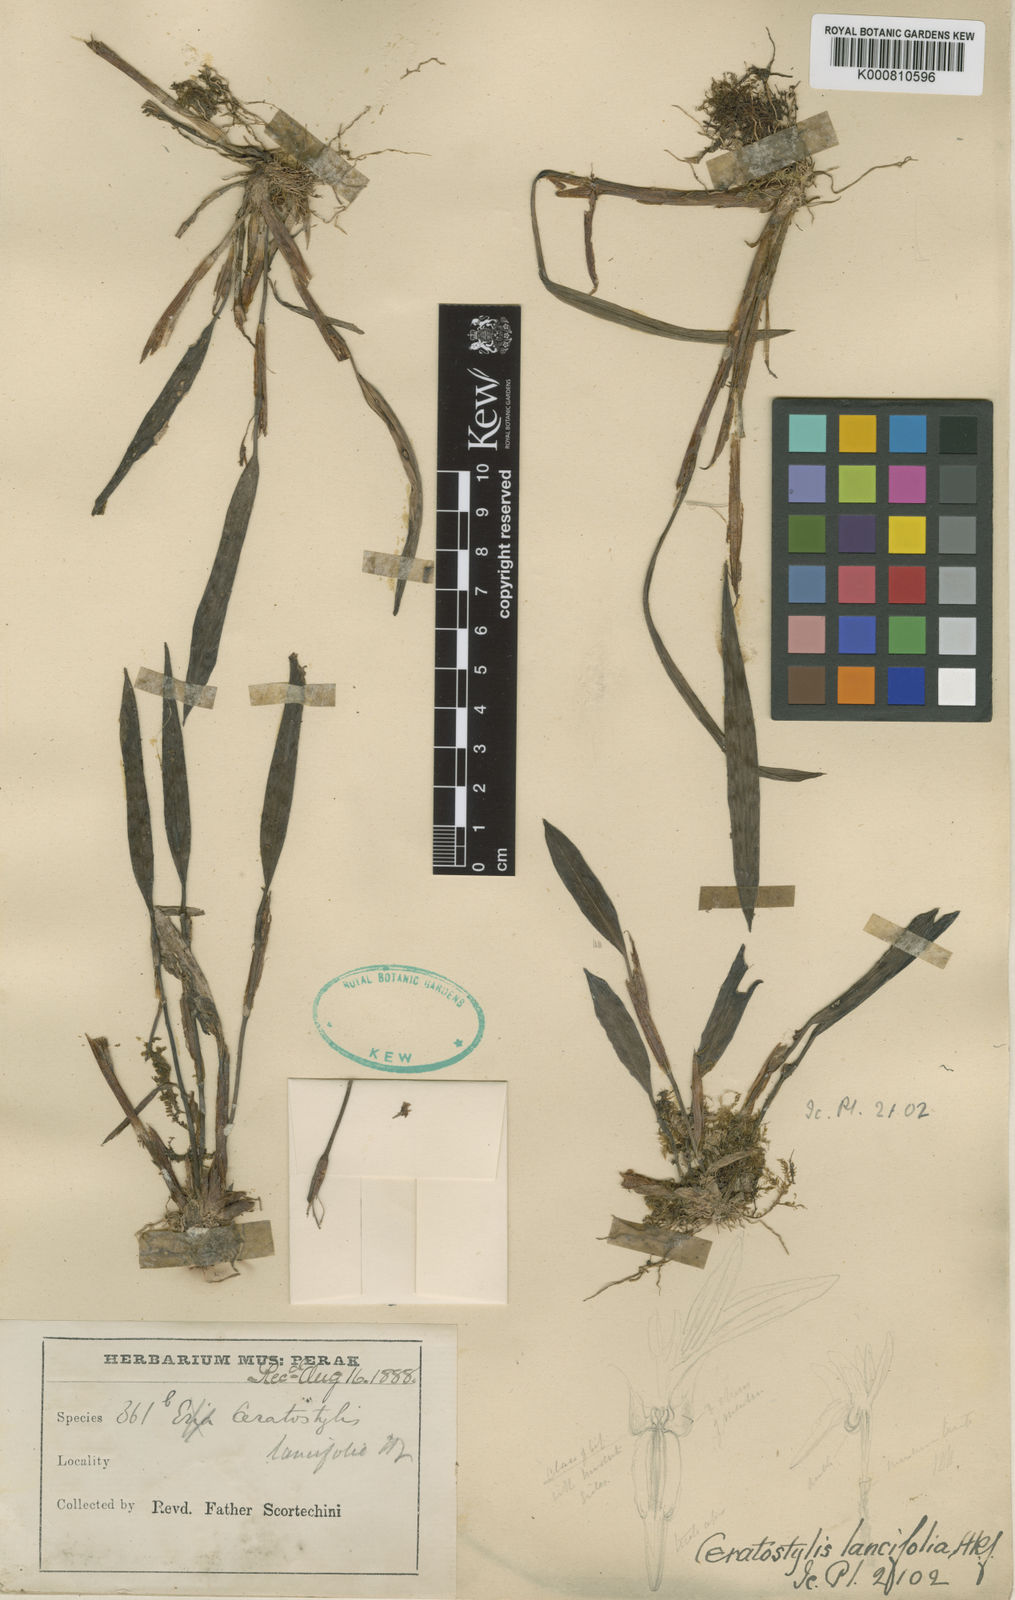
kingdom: Plantae
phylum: Tracheophyta
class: Liliopsida
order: Asparagales
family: Orchidaceae
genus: Ceratostylis
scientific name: Ceratostylis lancifolia
